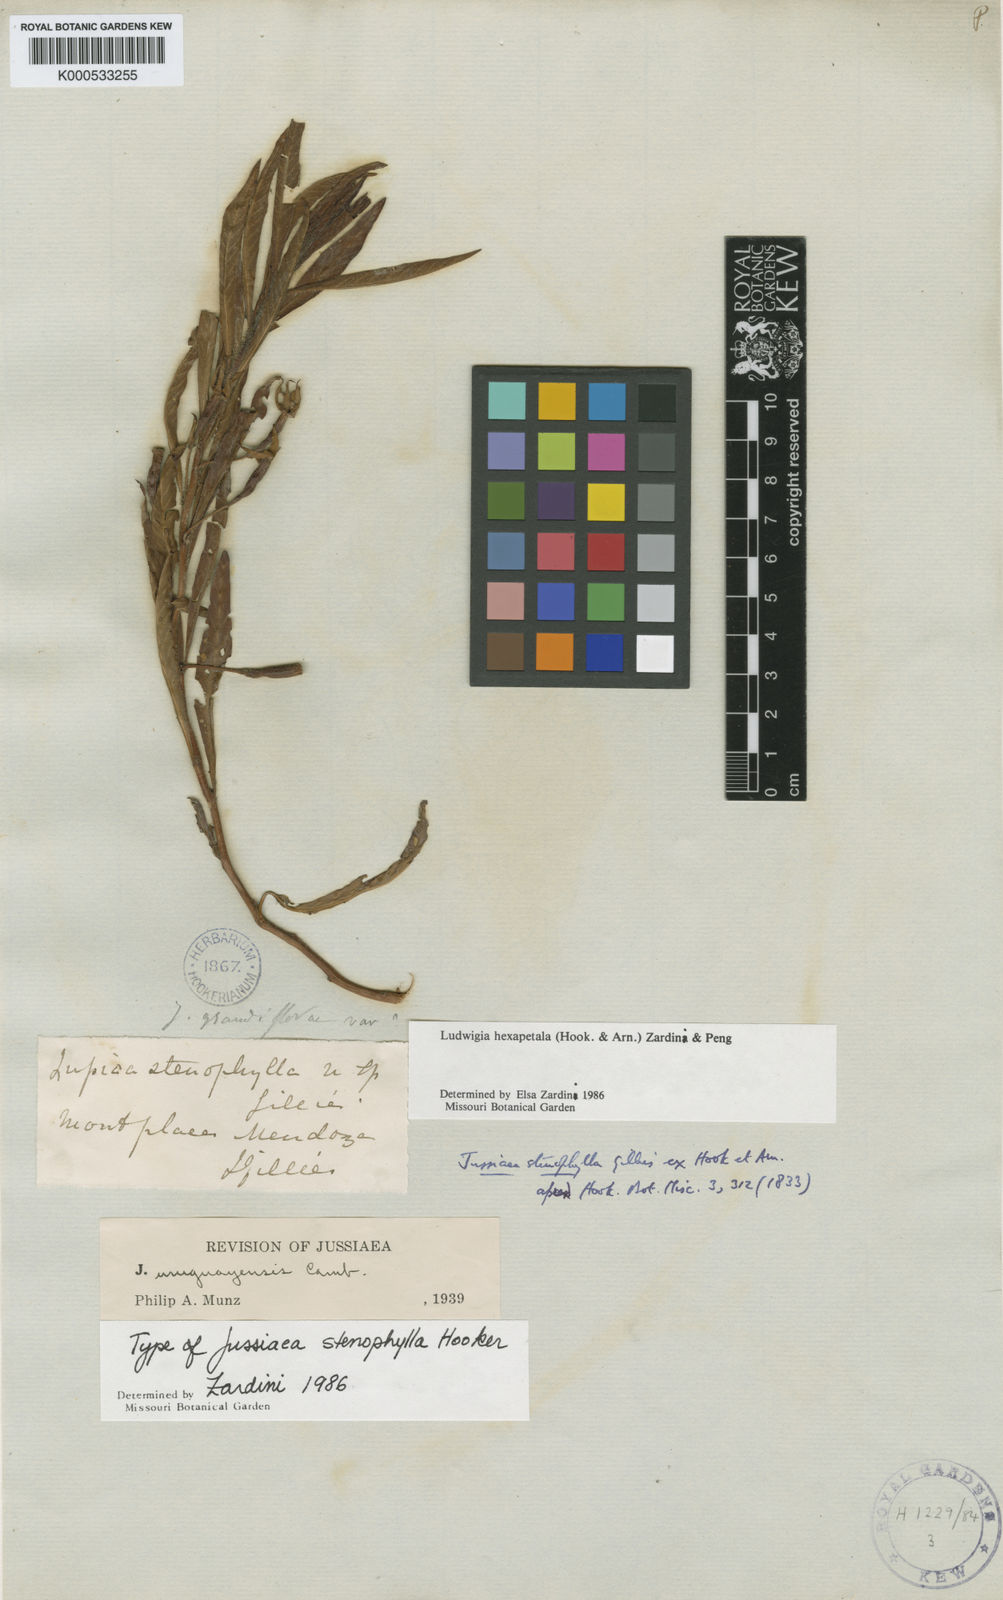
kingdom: Plantae
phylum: Tracheophyta
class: Magnoliopsida
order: Myrtales
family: Onagraceae
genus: Ludwigia
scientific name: Ludwigia
